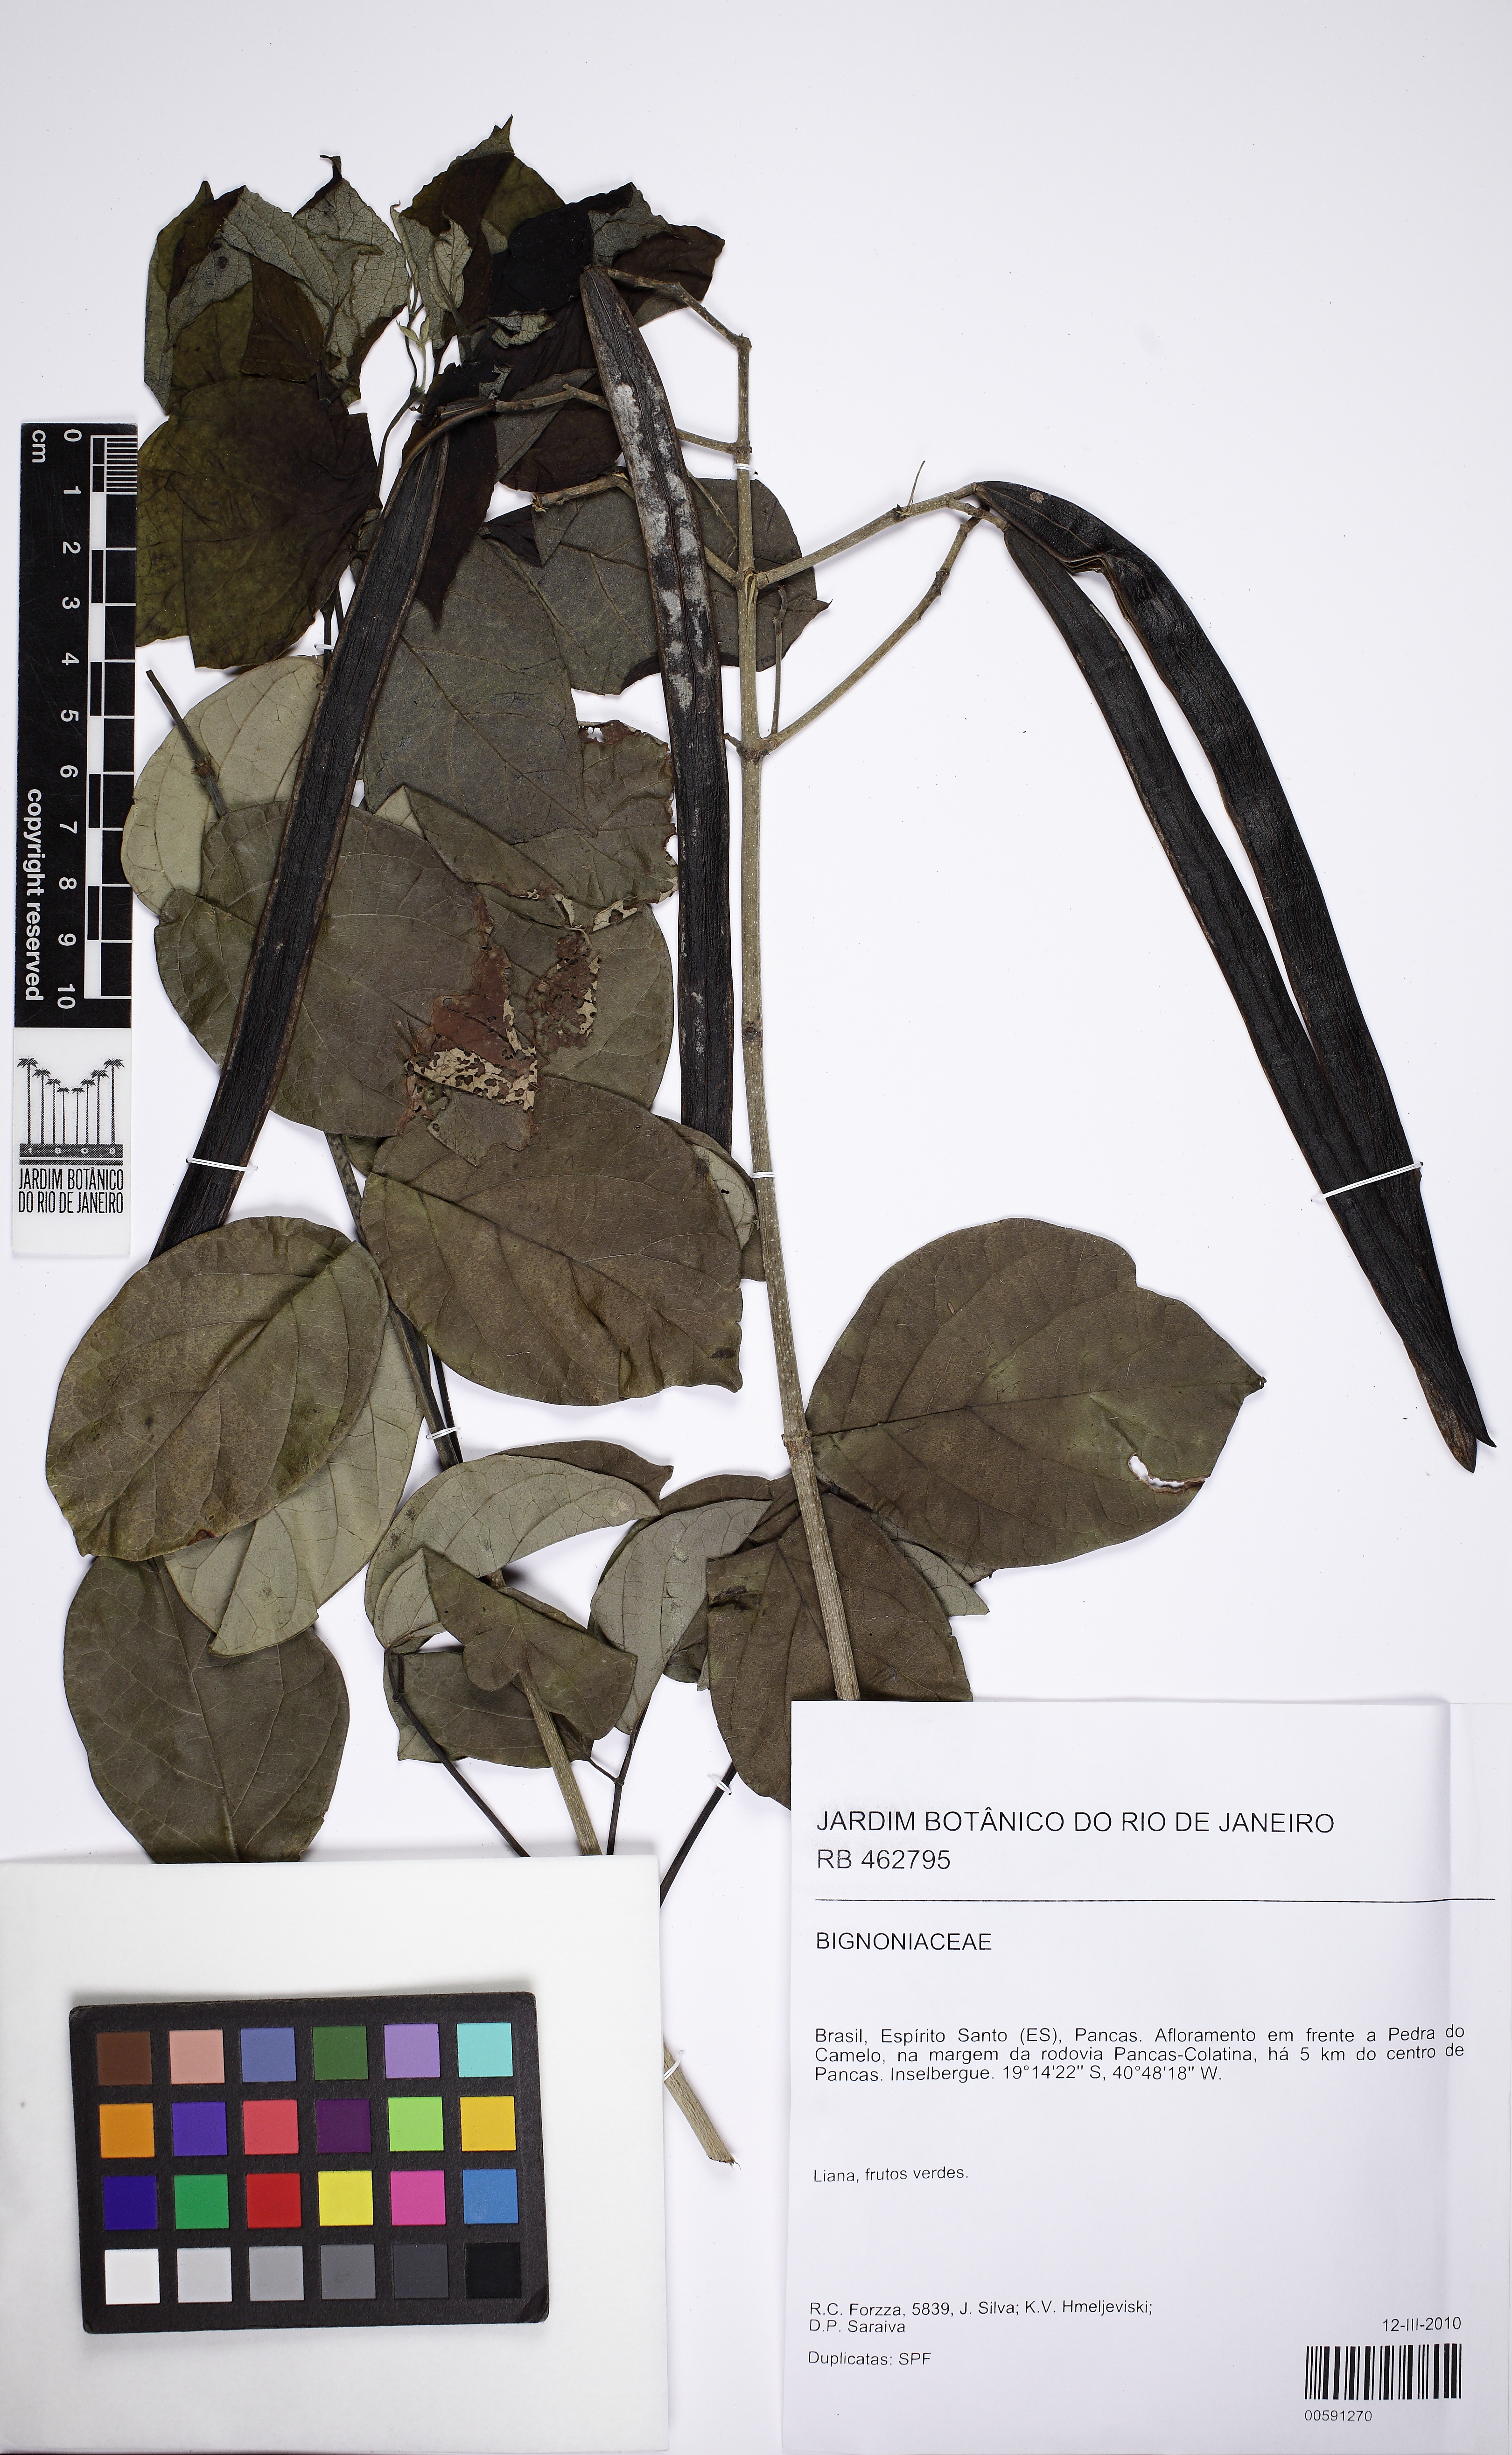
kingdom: Plantae
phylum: Tracheophyta
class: Magnoliopsida
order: Lamiales
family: Bignoniaceae
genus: Fridericia
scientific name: Fridericia subincana
